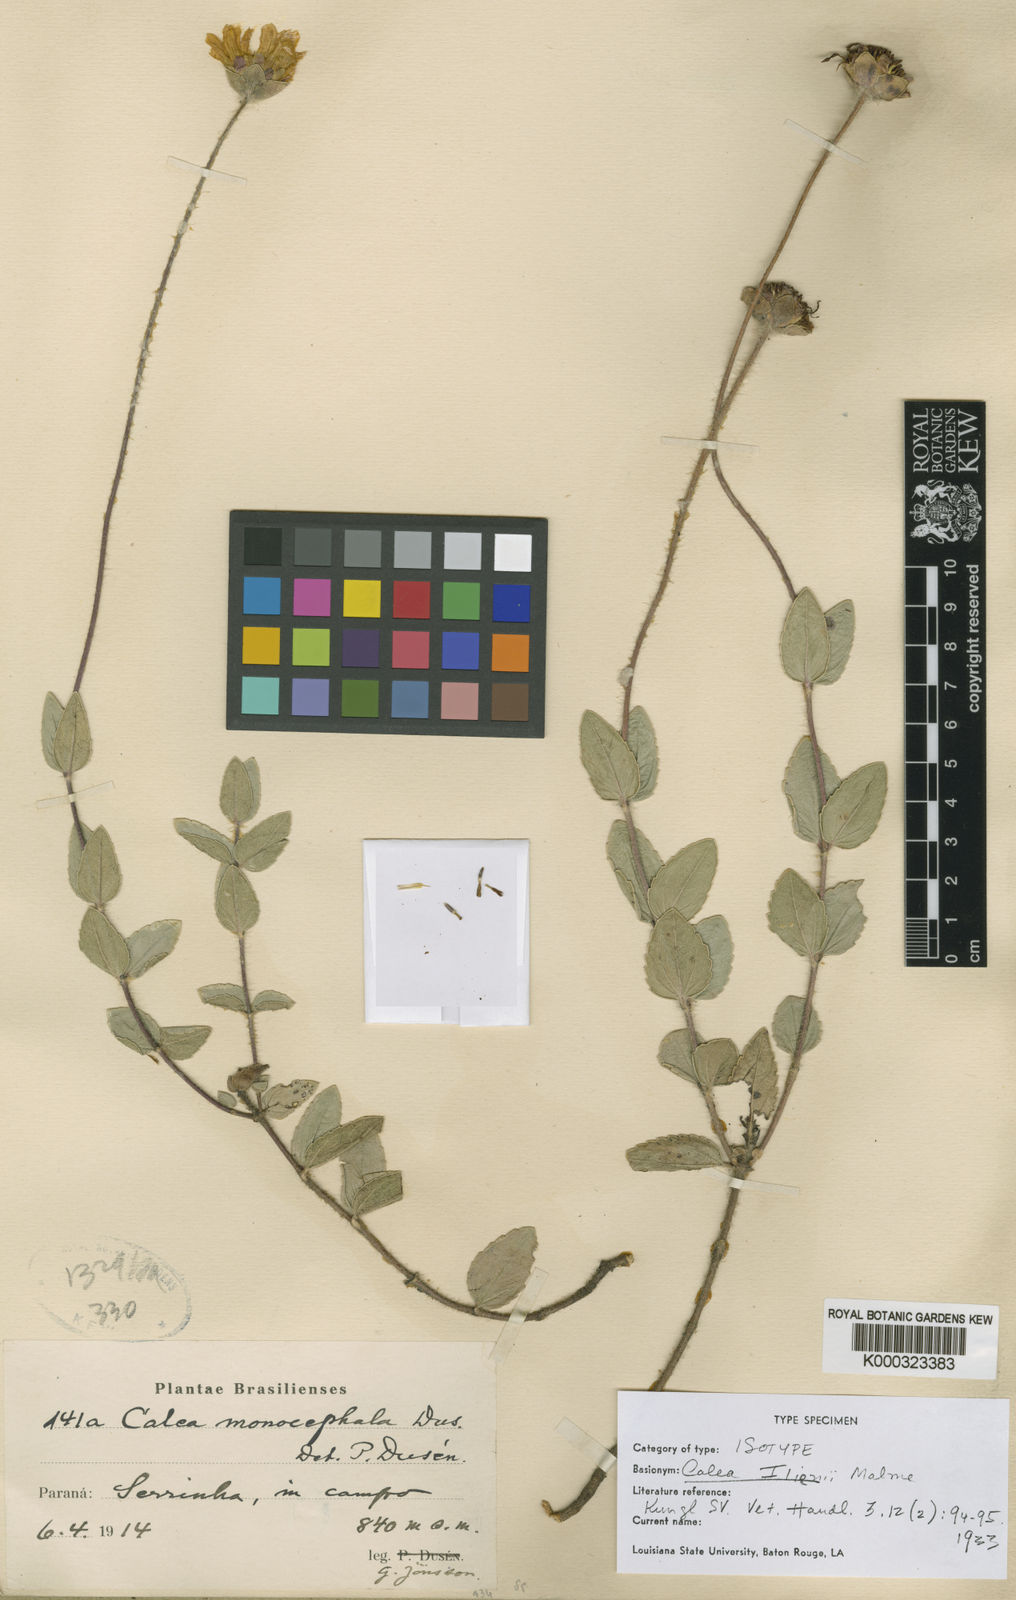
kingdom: Plantae
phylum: Tracheophyta
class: Magnoliopsida
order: Asterales
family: Asteraceae
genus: Calea
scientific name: Calea ilienii
